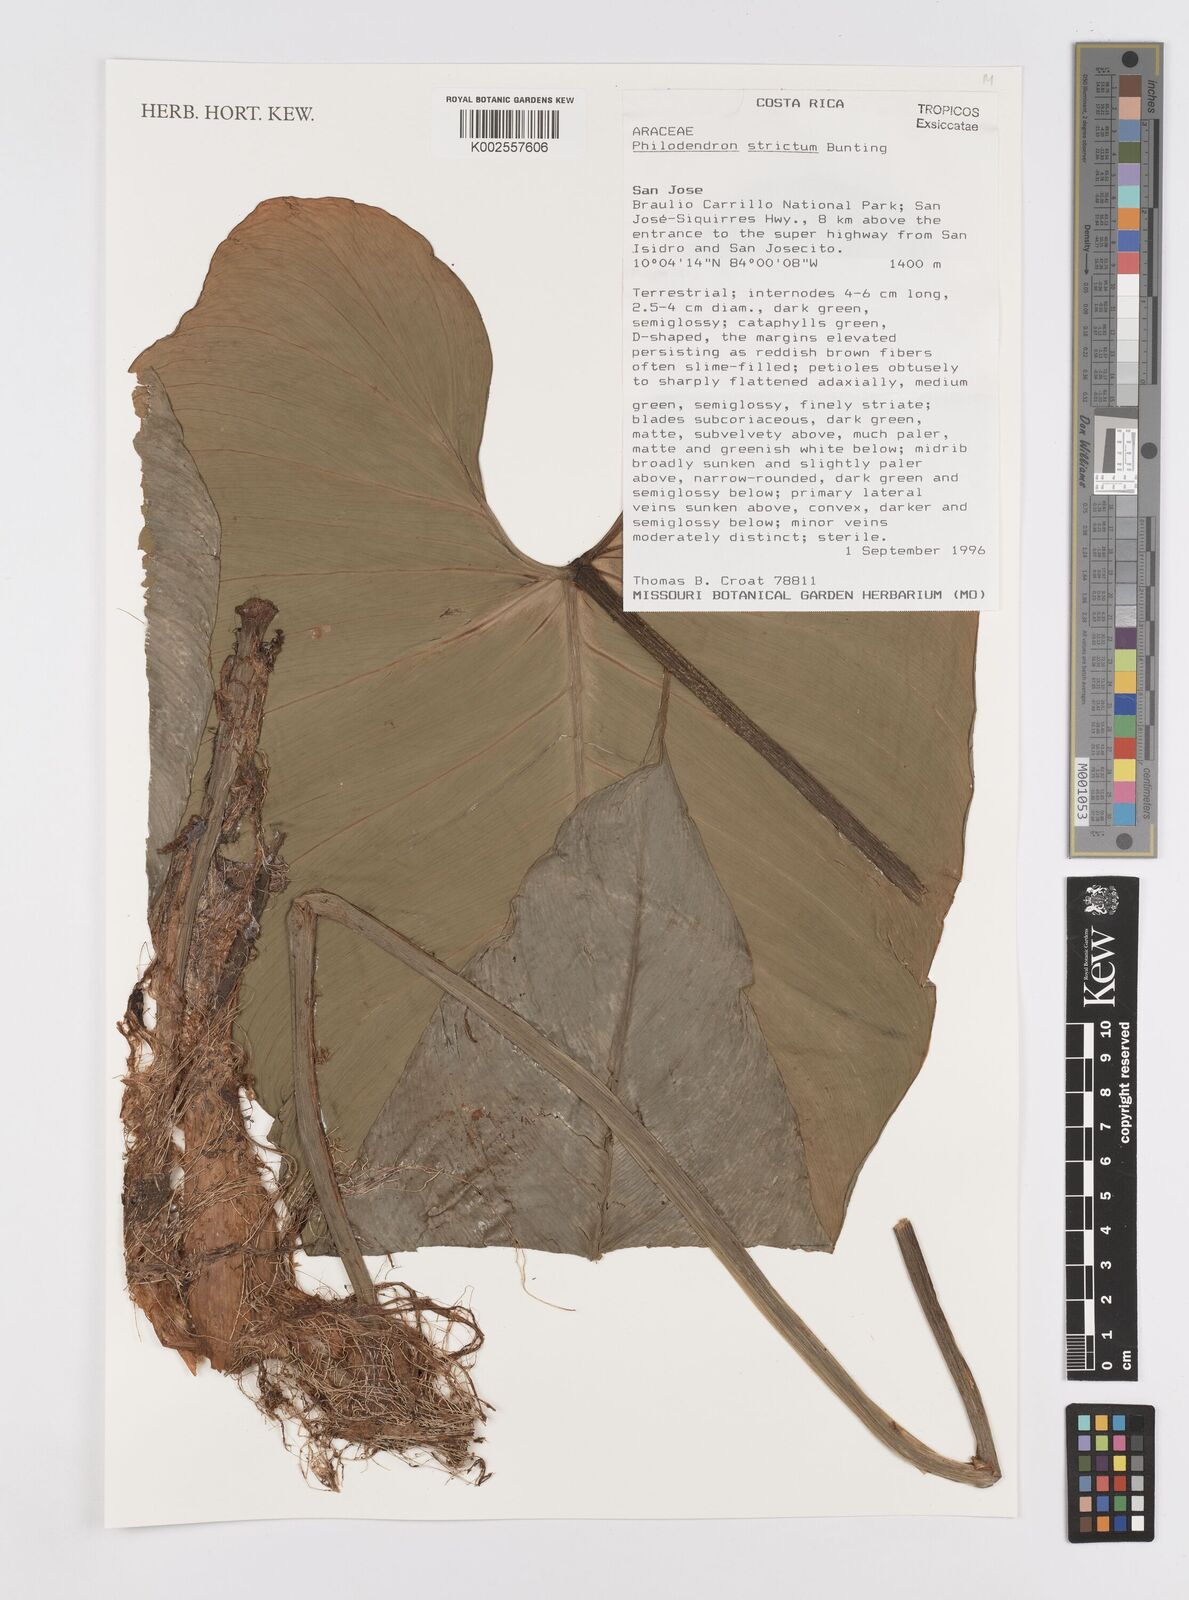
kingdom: Plantae
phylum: Tracheophyta
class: Liliopsida
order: Alismatales
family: Araceae
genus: Philodendron
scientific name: Philodendron strictum
